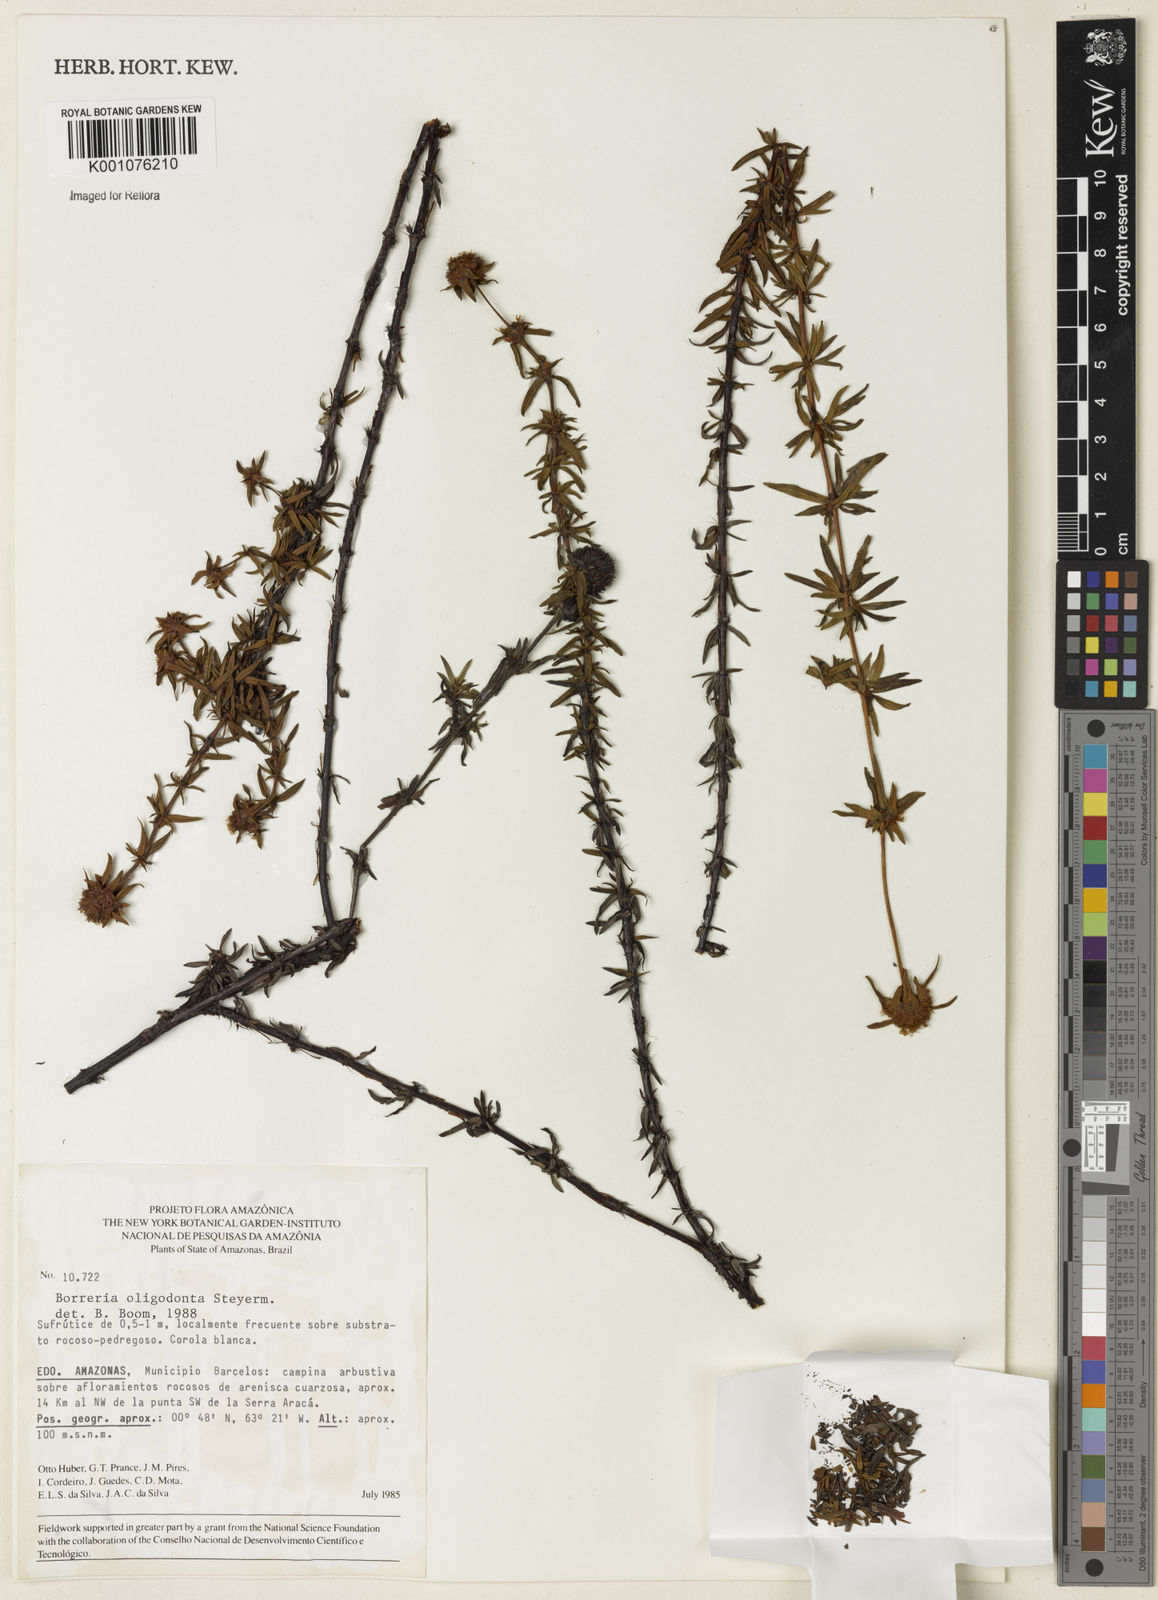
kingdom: Plantae
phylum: Tracheophyta
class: Magnoliopsida
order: Gentianales
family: Rubiaceae
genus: Spermacoce
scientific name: Spermacoce verticillata
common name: Shrubby false buttonweed
